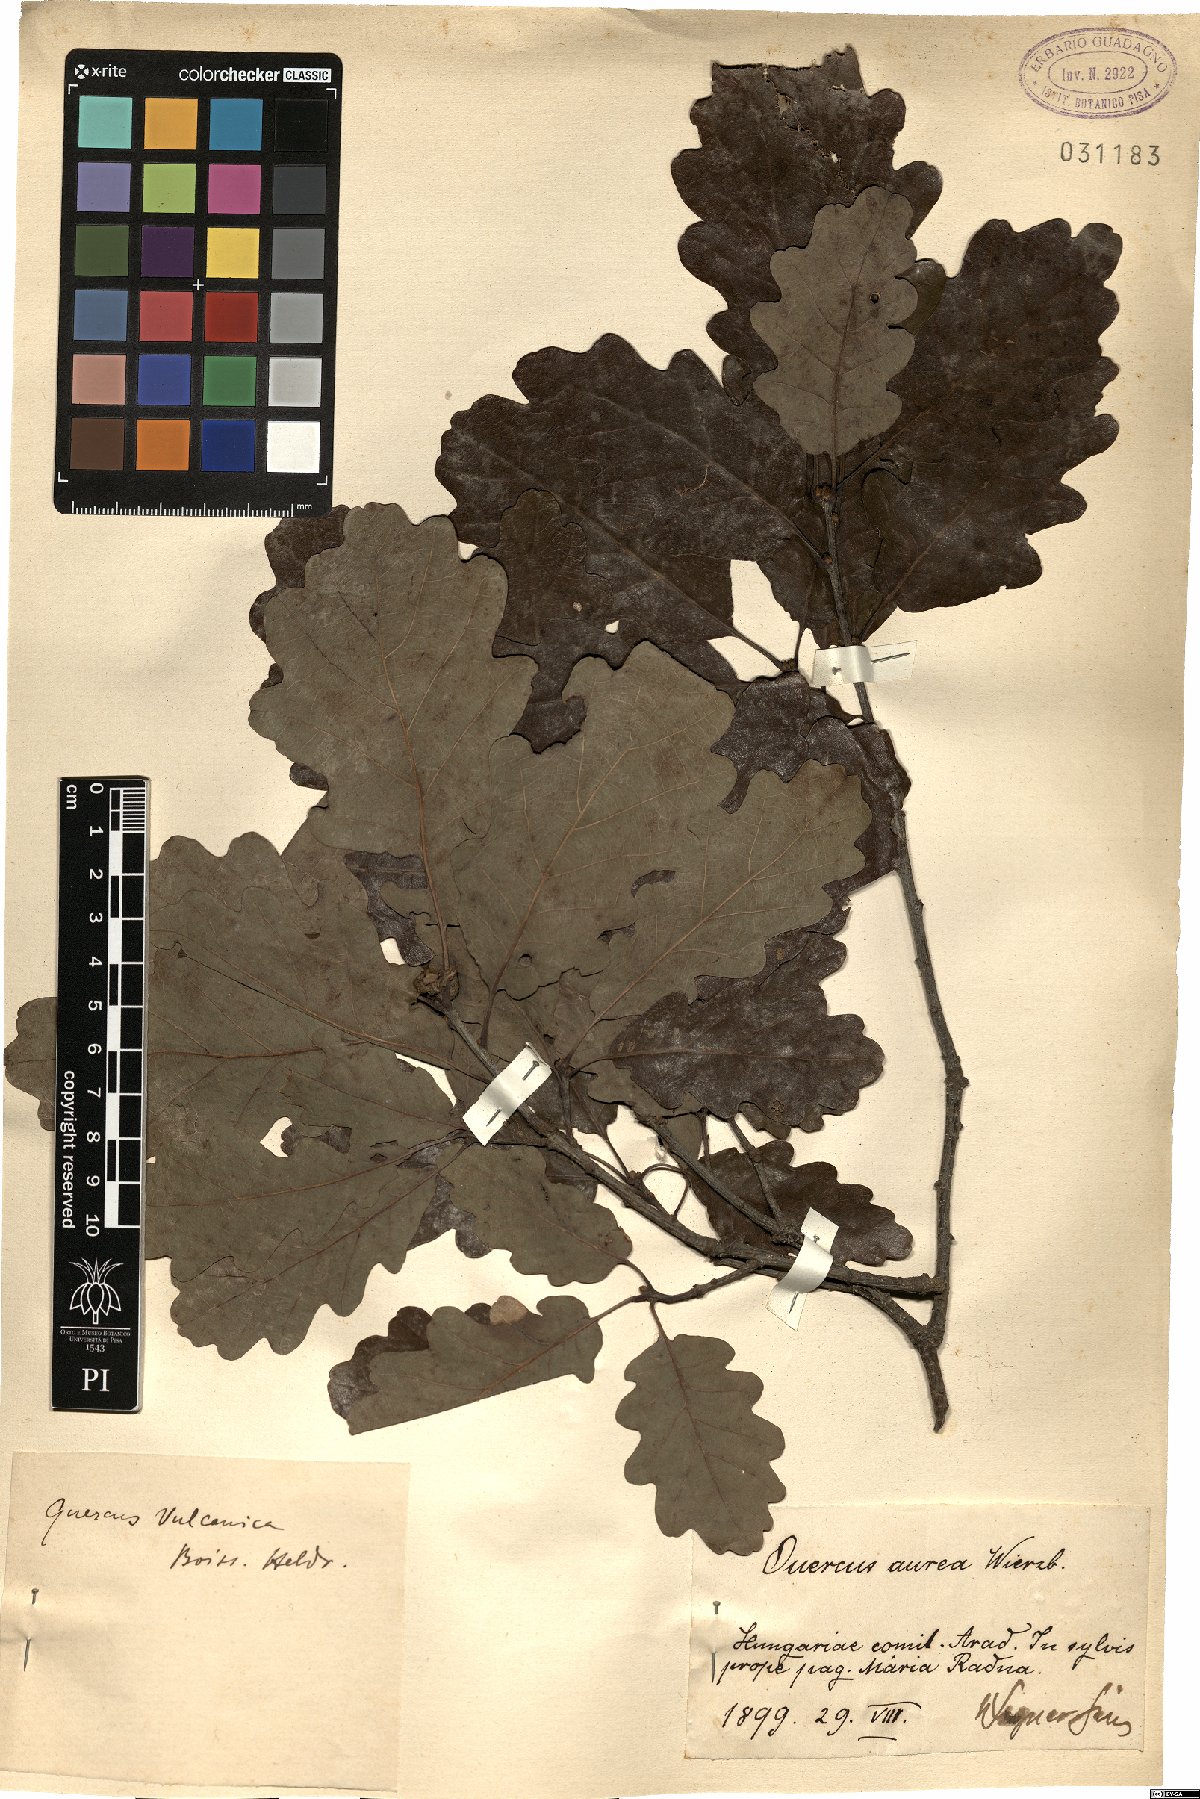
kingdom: Plantae
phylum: Tracheophyta
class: Magnoliopsida
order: Fagales
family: Fagaceae
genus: Quercus
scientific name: Quercus vulcanica
